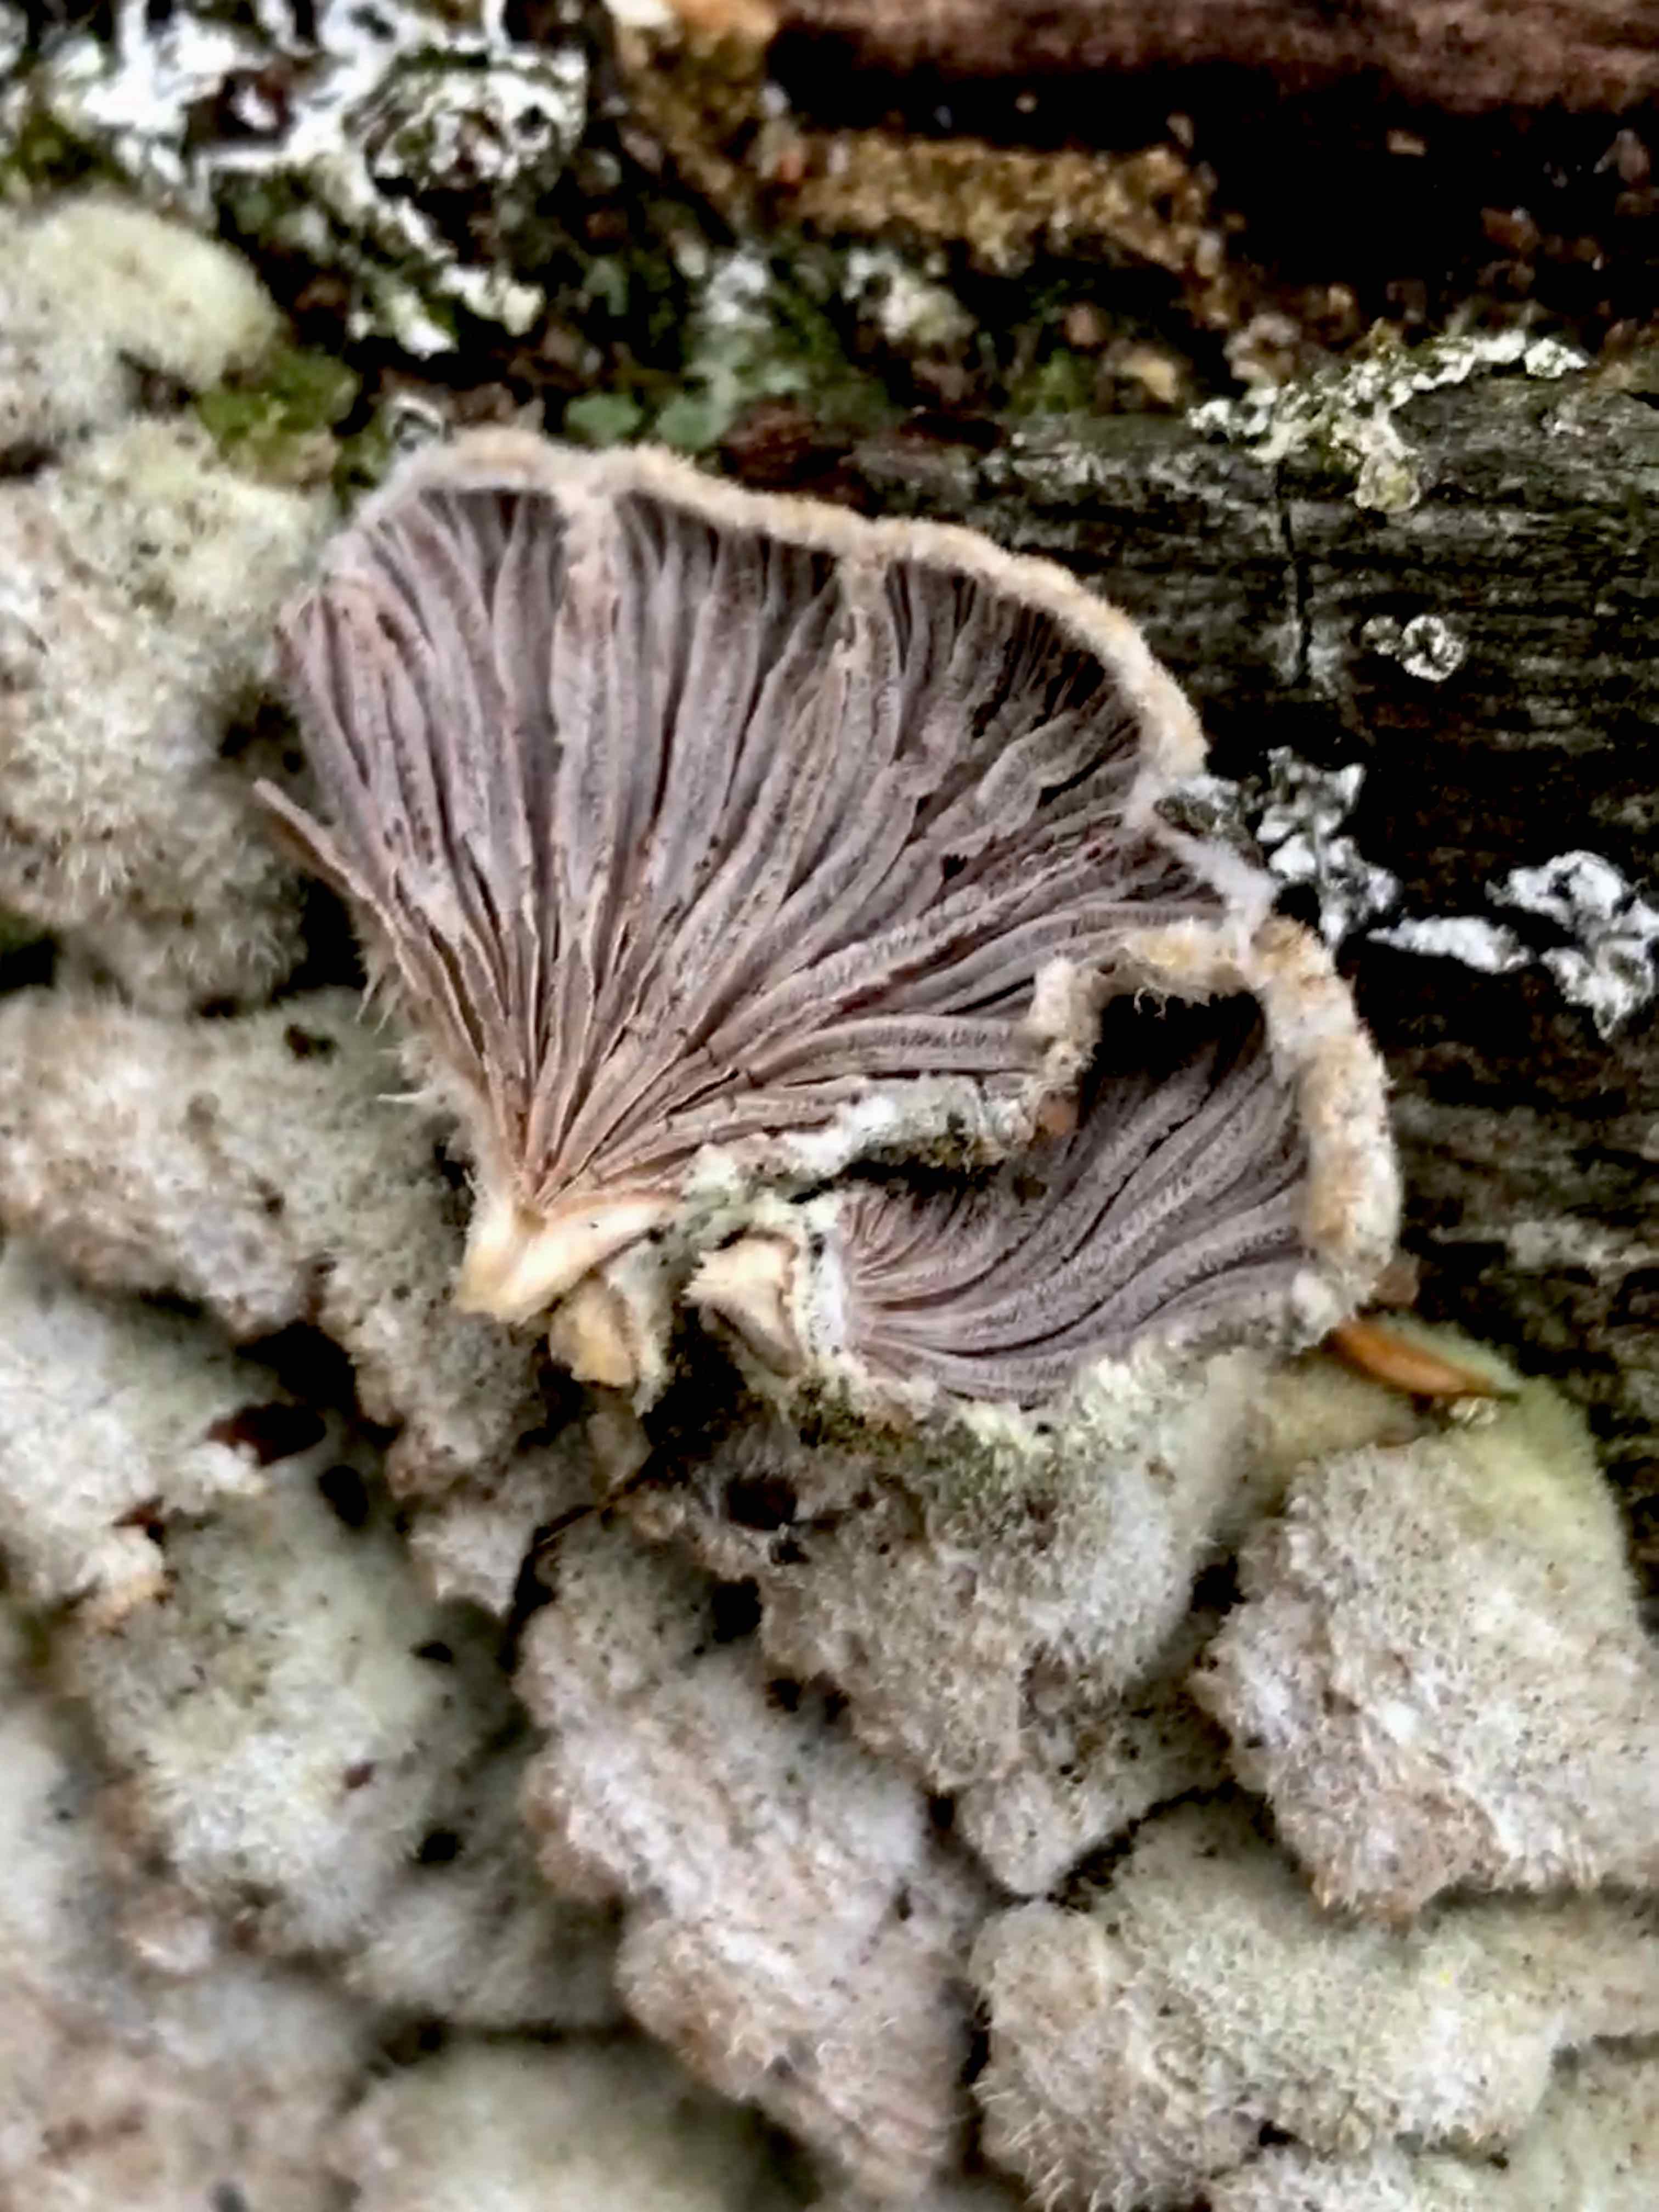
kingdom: Fungi
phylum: Basidiomycota
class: Agaricomycetes
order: Agaricales
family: Schizophyllaceae
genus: Schizophyllum
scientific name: Schizophyllum commune
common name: kløvblad
